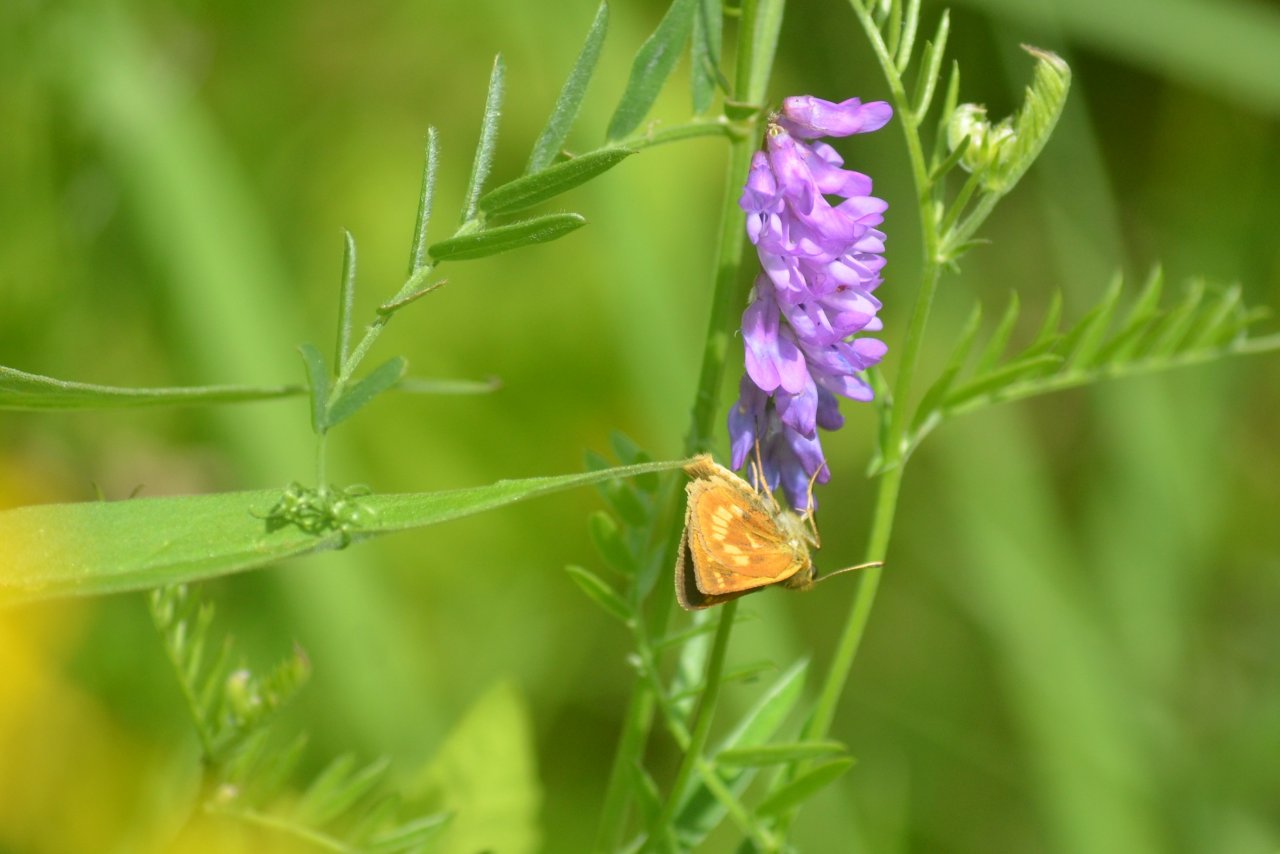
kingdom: Animalia
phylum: Arthropoda
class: Insecta
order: Lepidoptera
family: Hesperiidae
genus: Polites
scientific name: Polites
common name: Long Dash Skipper
